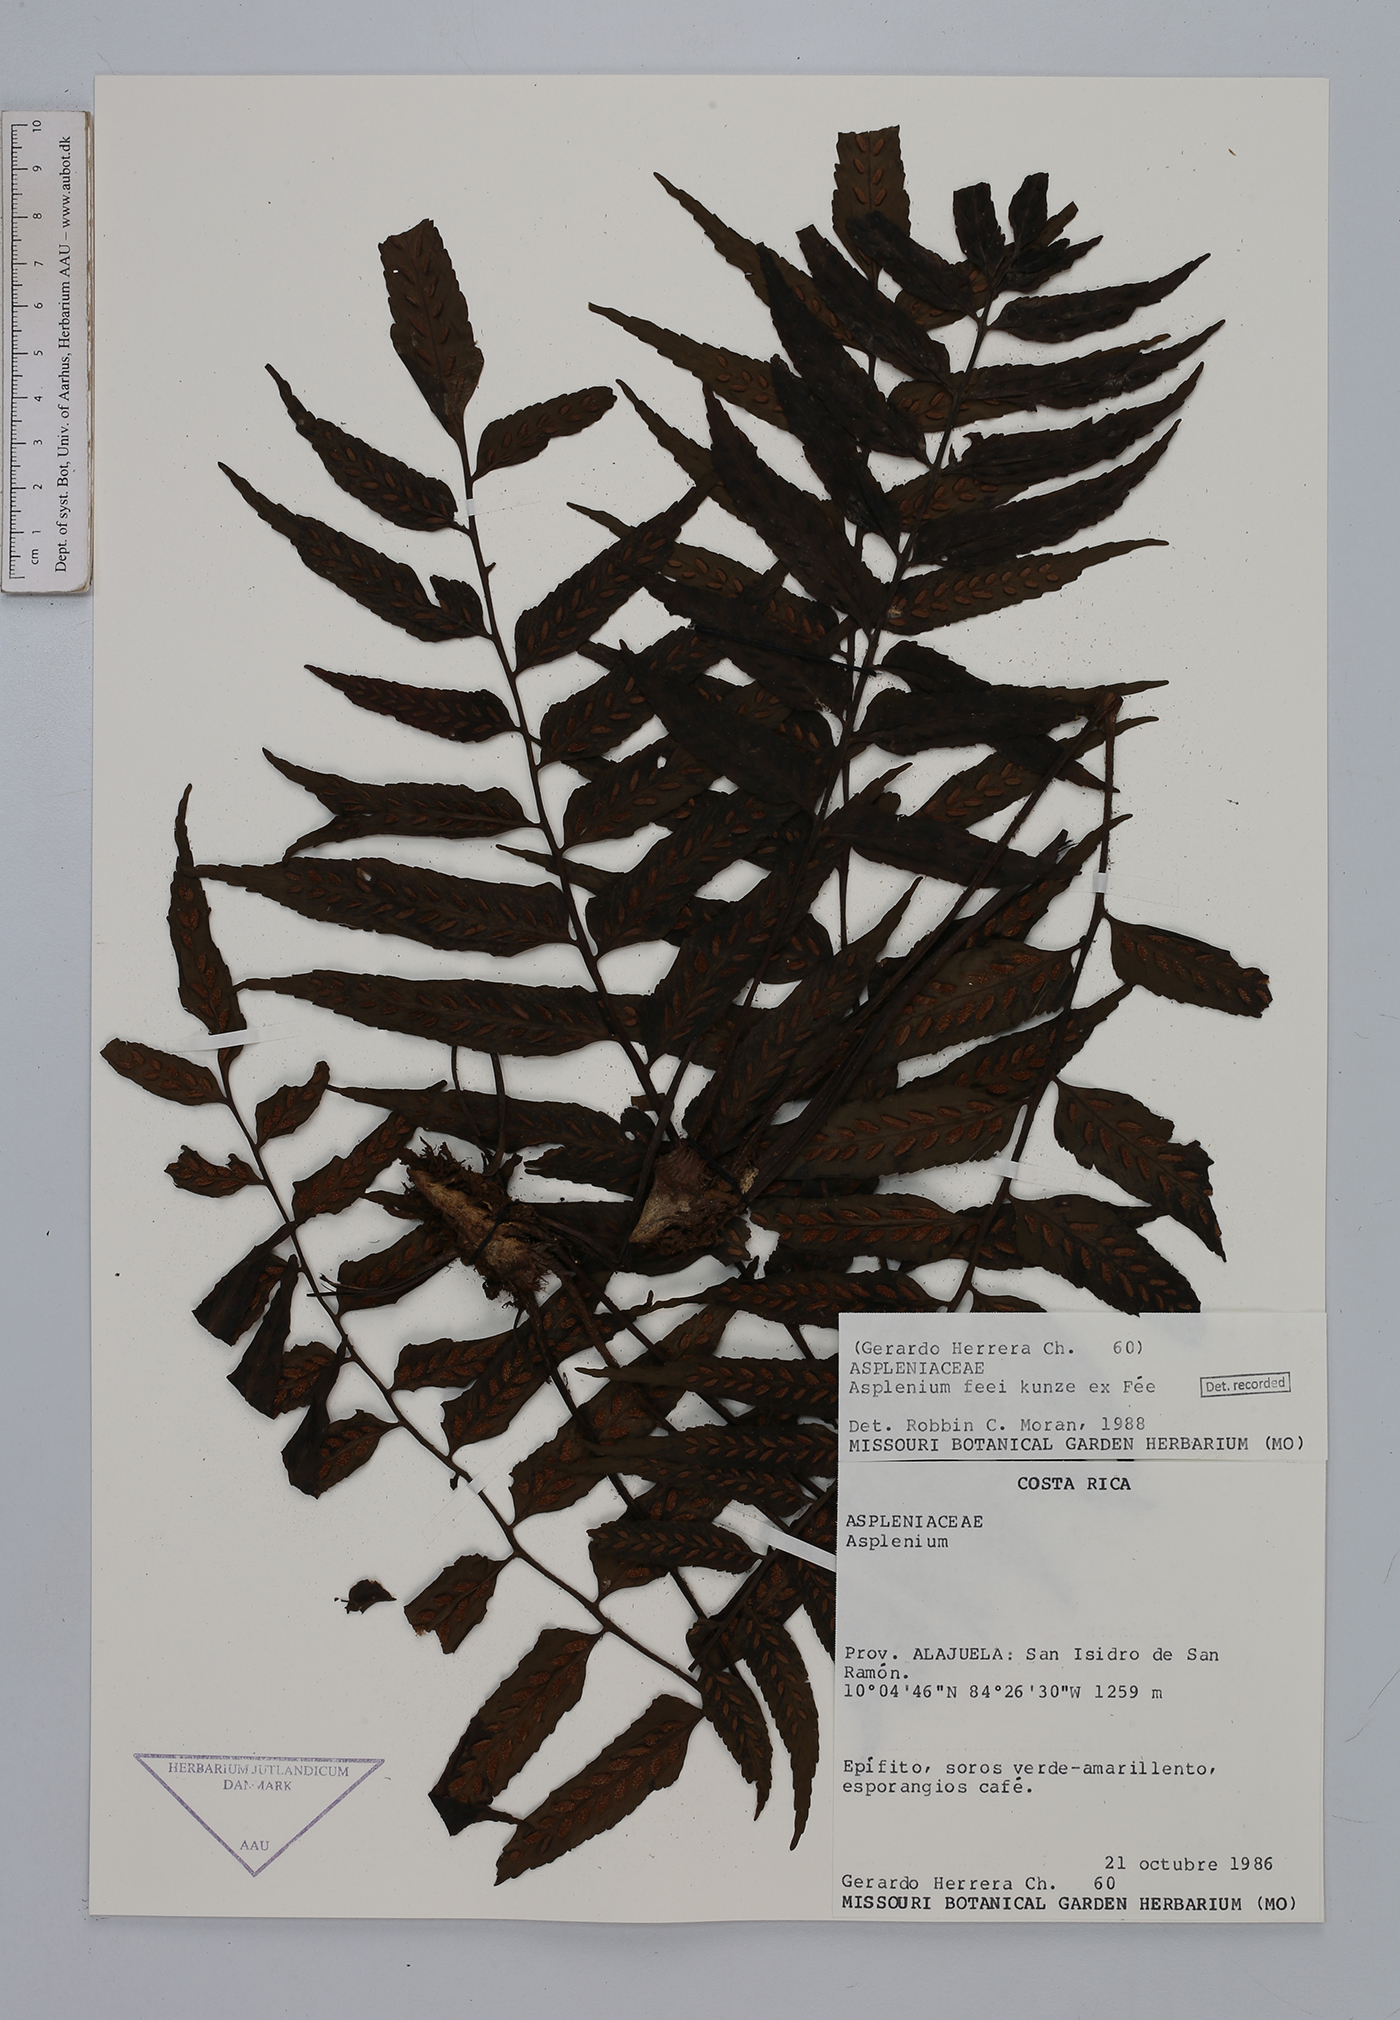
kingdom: Plantae
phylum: Tracheophyta
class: Polypodiopsida
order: Polypodiales
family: Aspleniaceae
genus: Asplenium
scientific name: Asplenium feei
